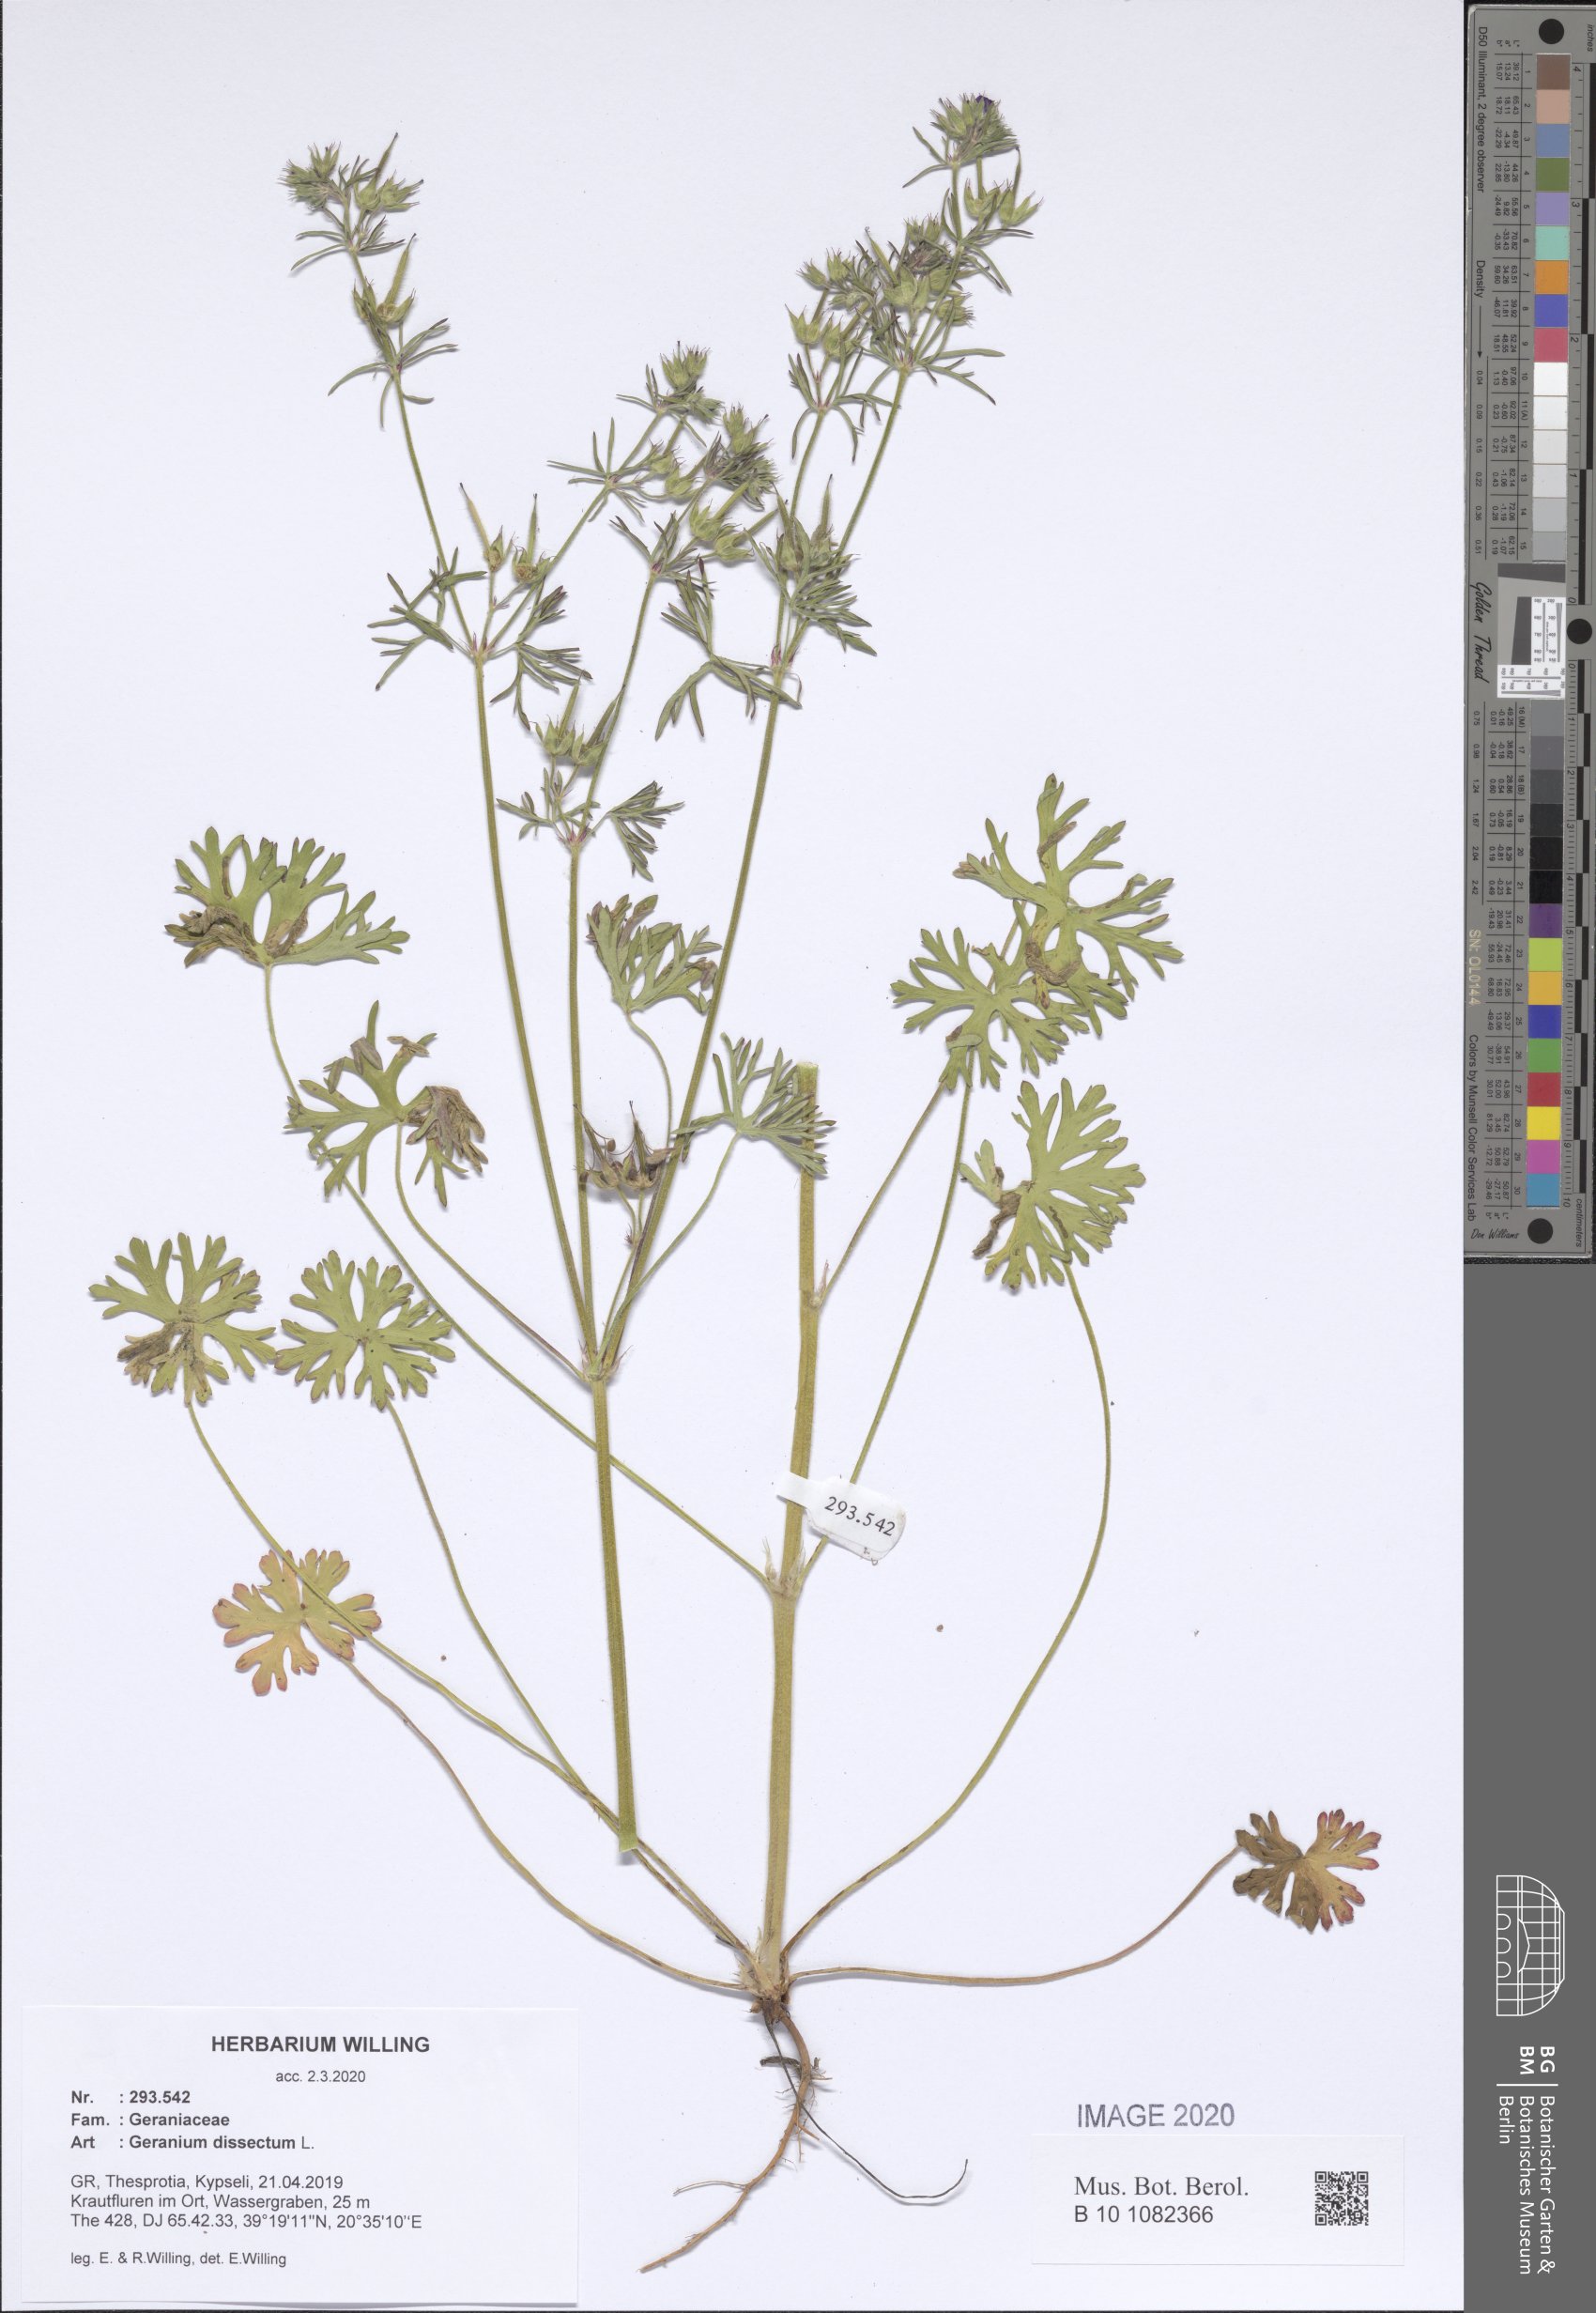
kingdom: Plantae
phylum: Tracheophyta
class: Magnoliopsida
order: Geraniales
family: Geraniaceae
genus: Geranium
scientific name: Geranium dissectum
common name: Cut-leaved crane's-bill
